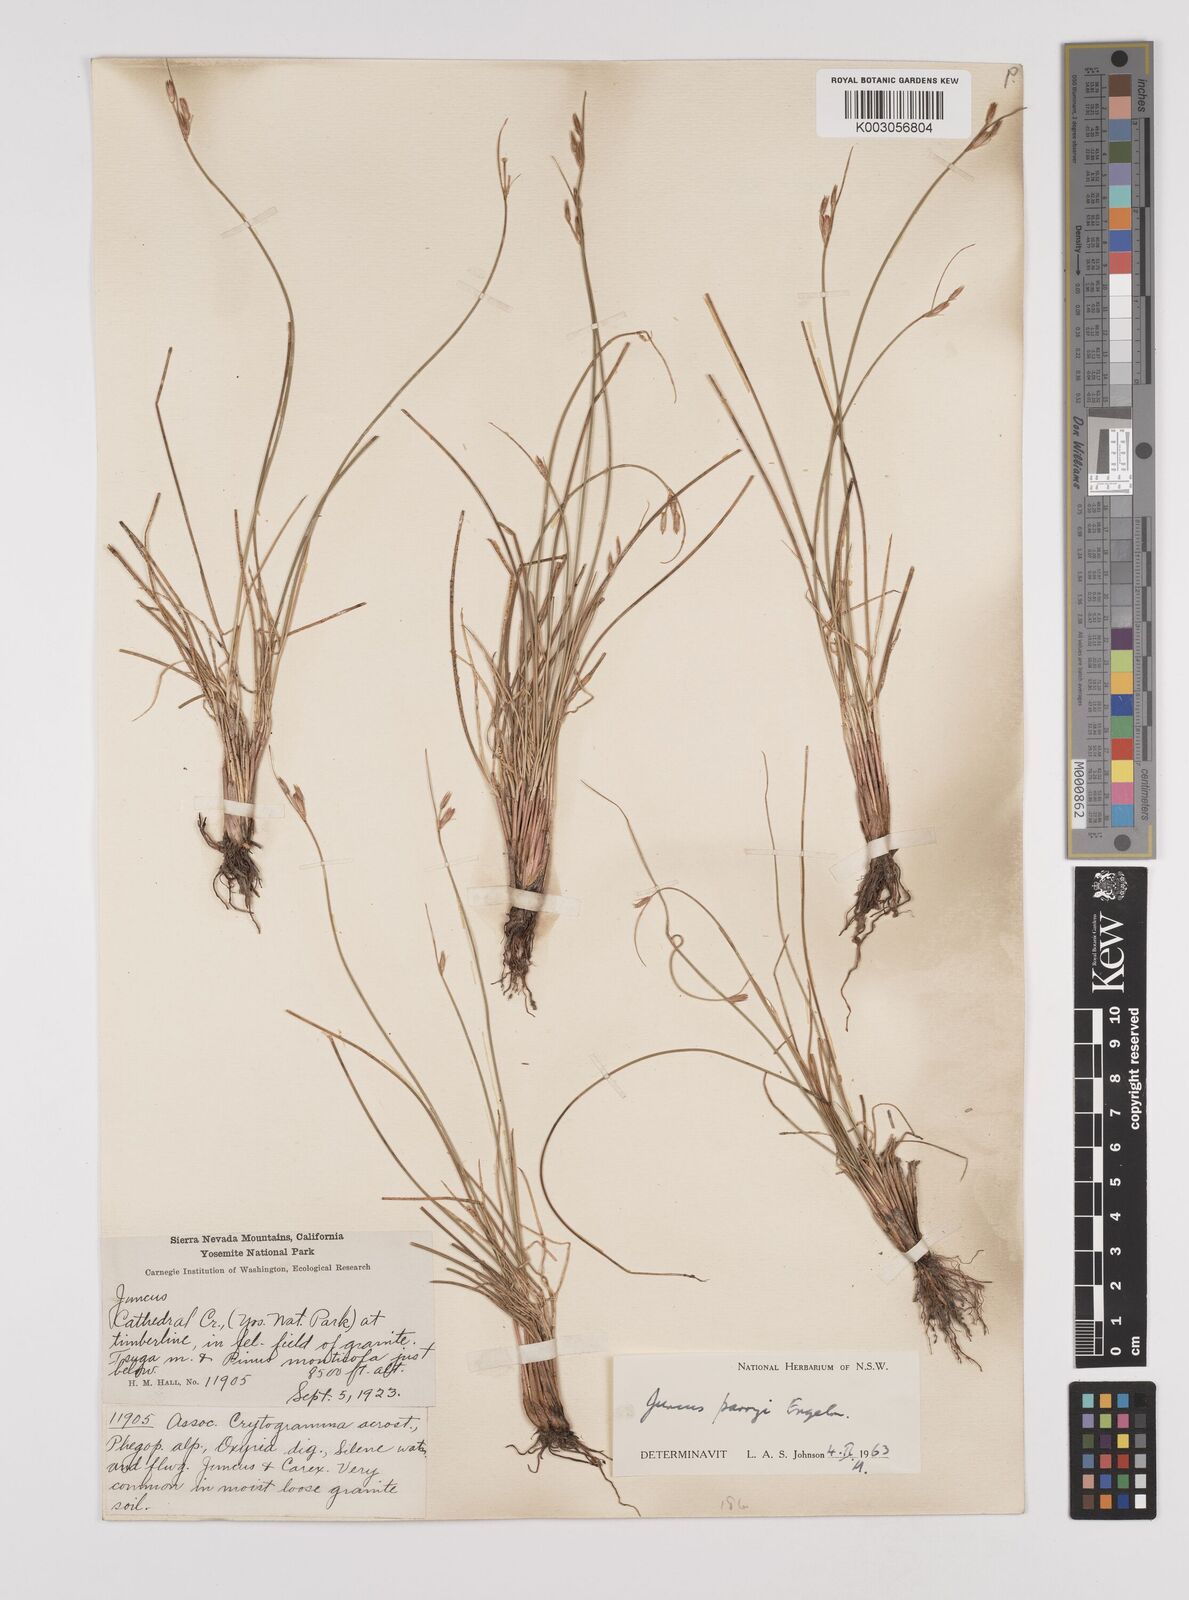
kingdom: Plantae
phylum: Tracheophyta
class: Liliopsida
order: Poales
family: Juncaceae
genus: Juncus
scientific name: Juncus parryi
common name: Parry's rush
